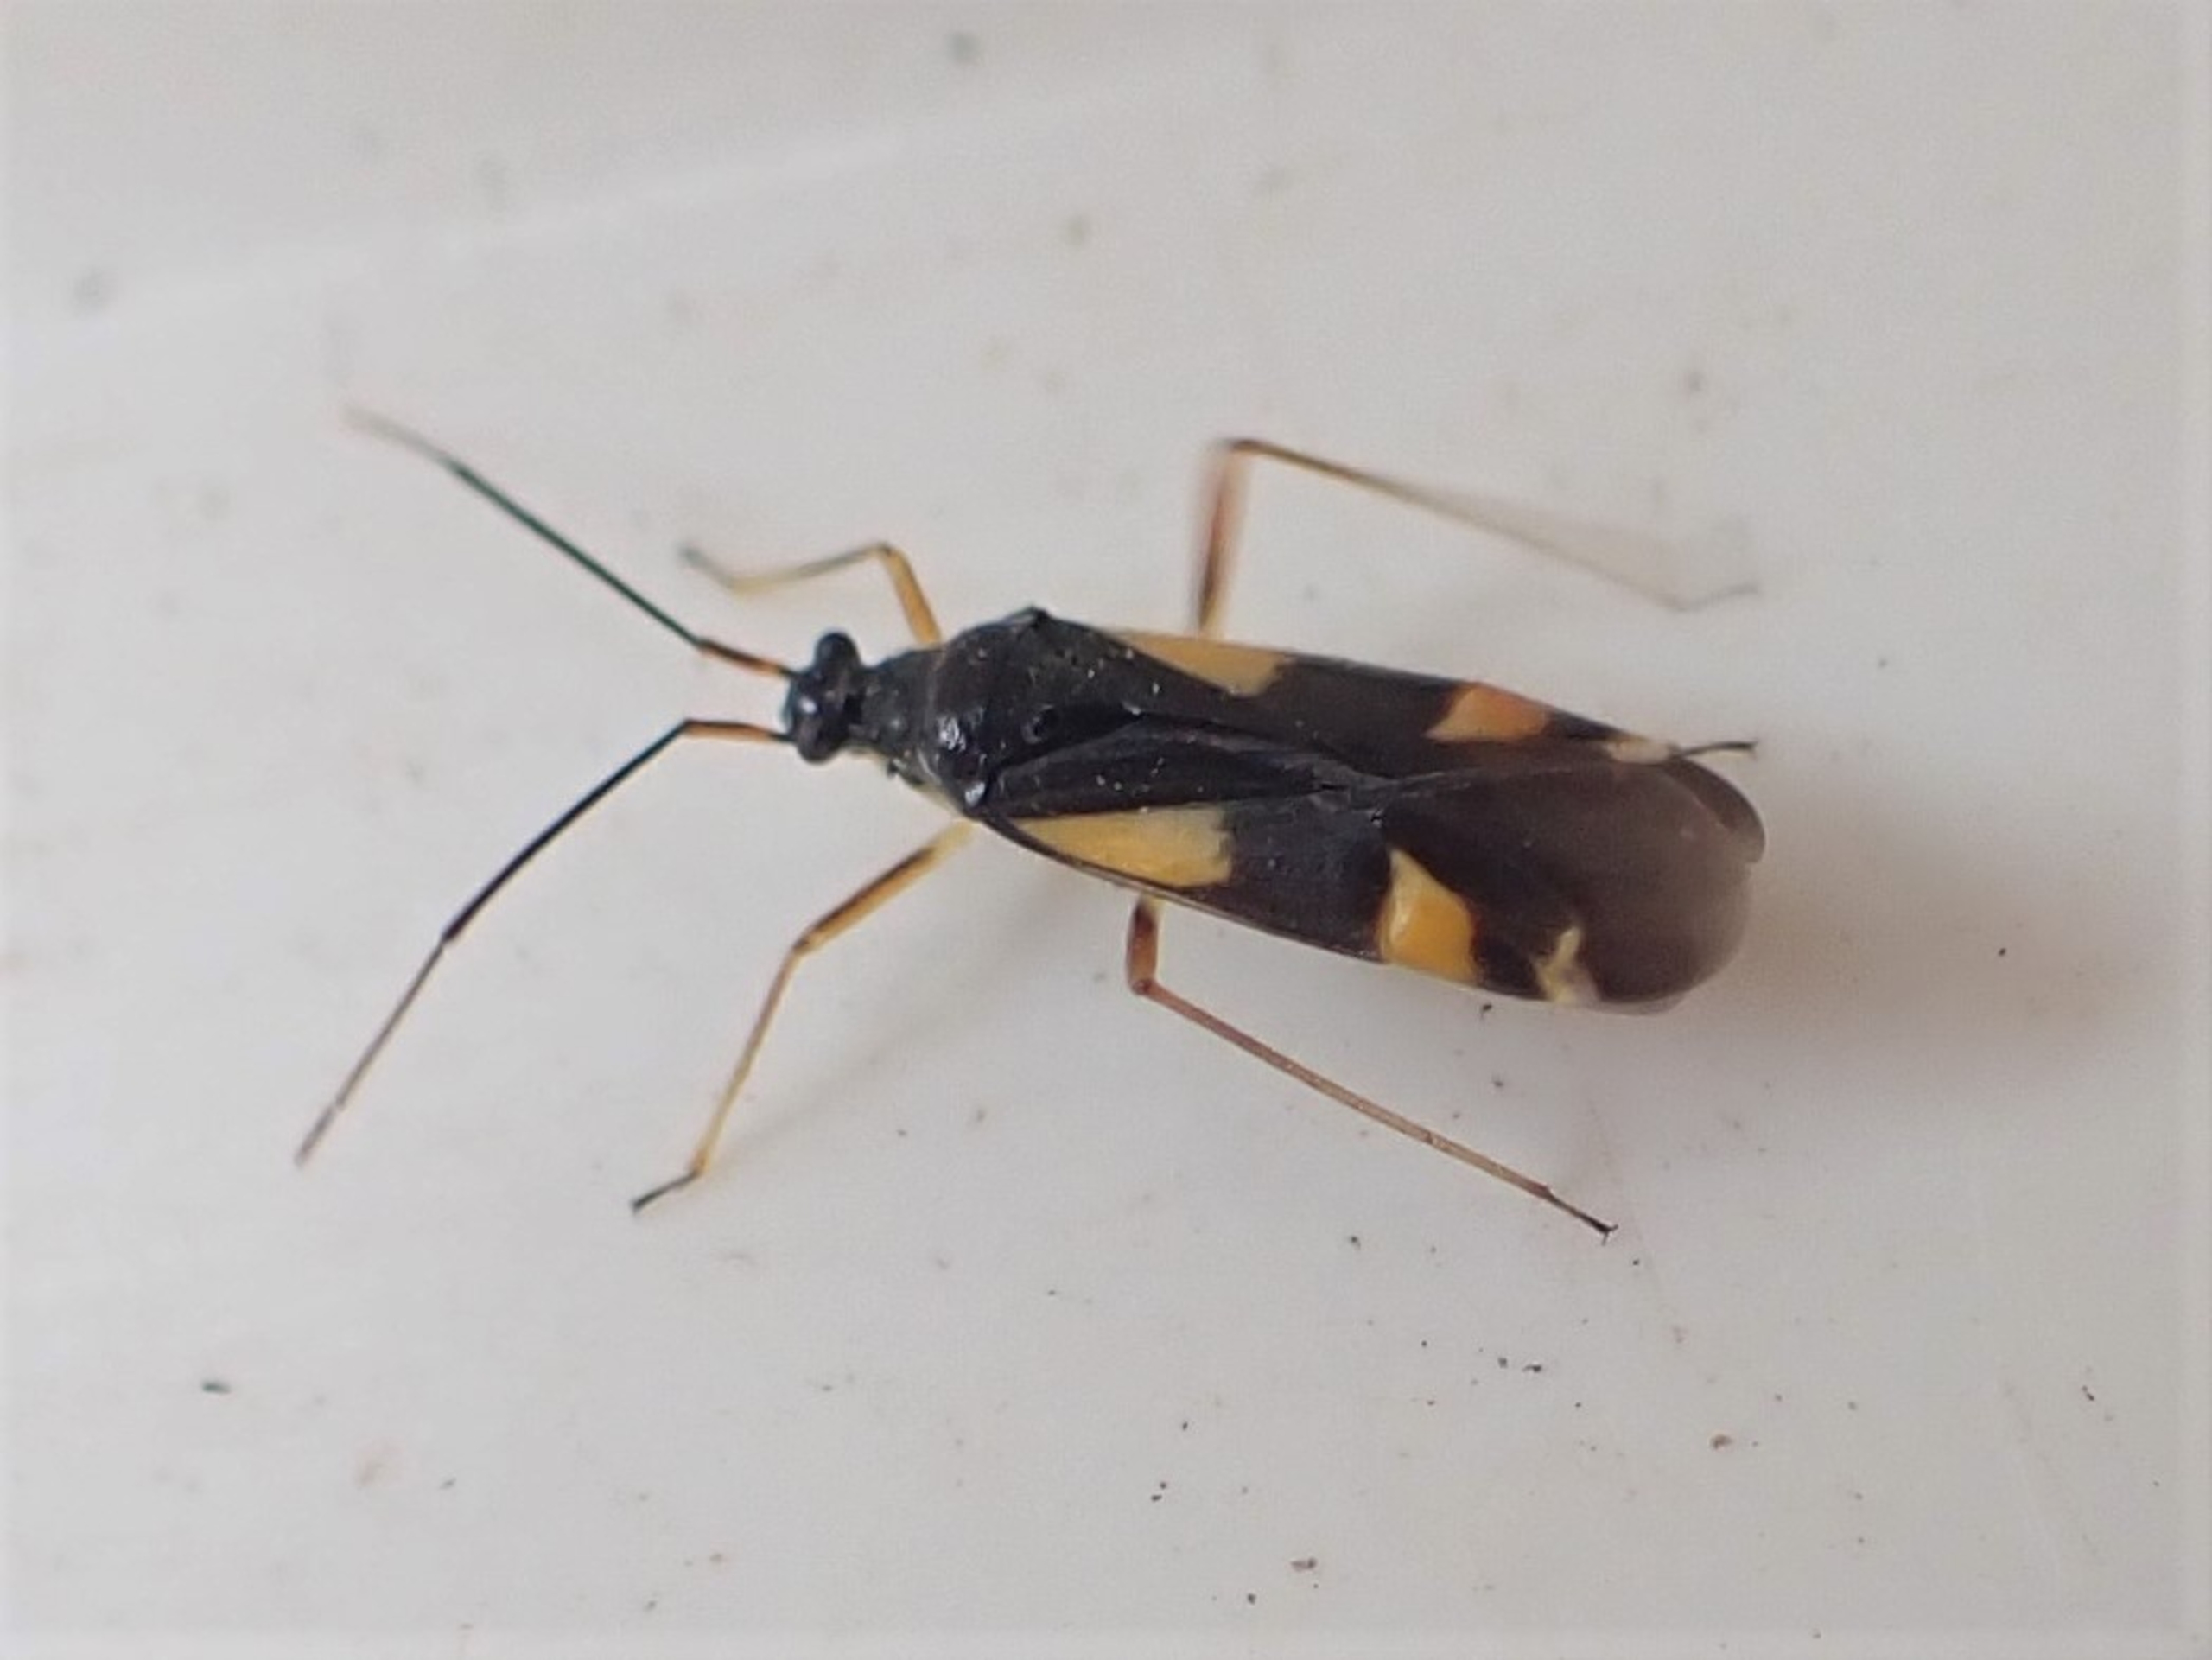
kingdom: Animalia
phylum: Arthropoda
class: Insecta
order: Hemiptera
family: Miridae
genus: Dryophilocoris
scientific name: Dryophilocoris flavoquadrimaculatus
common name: Fireplettet blomstertæge
